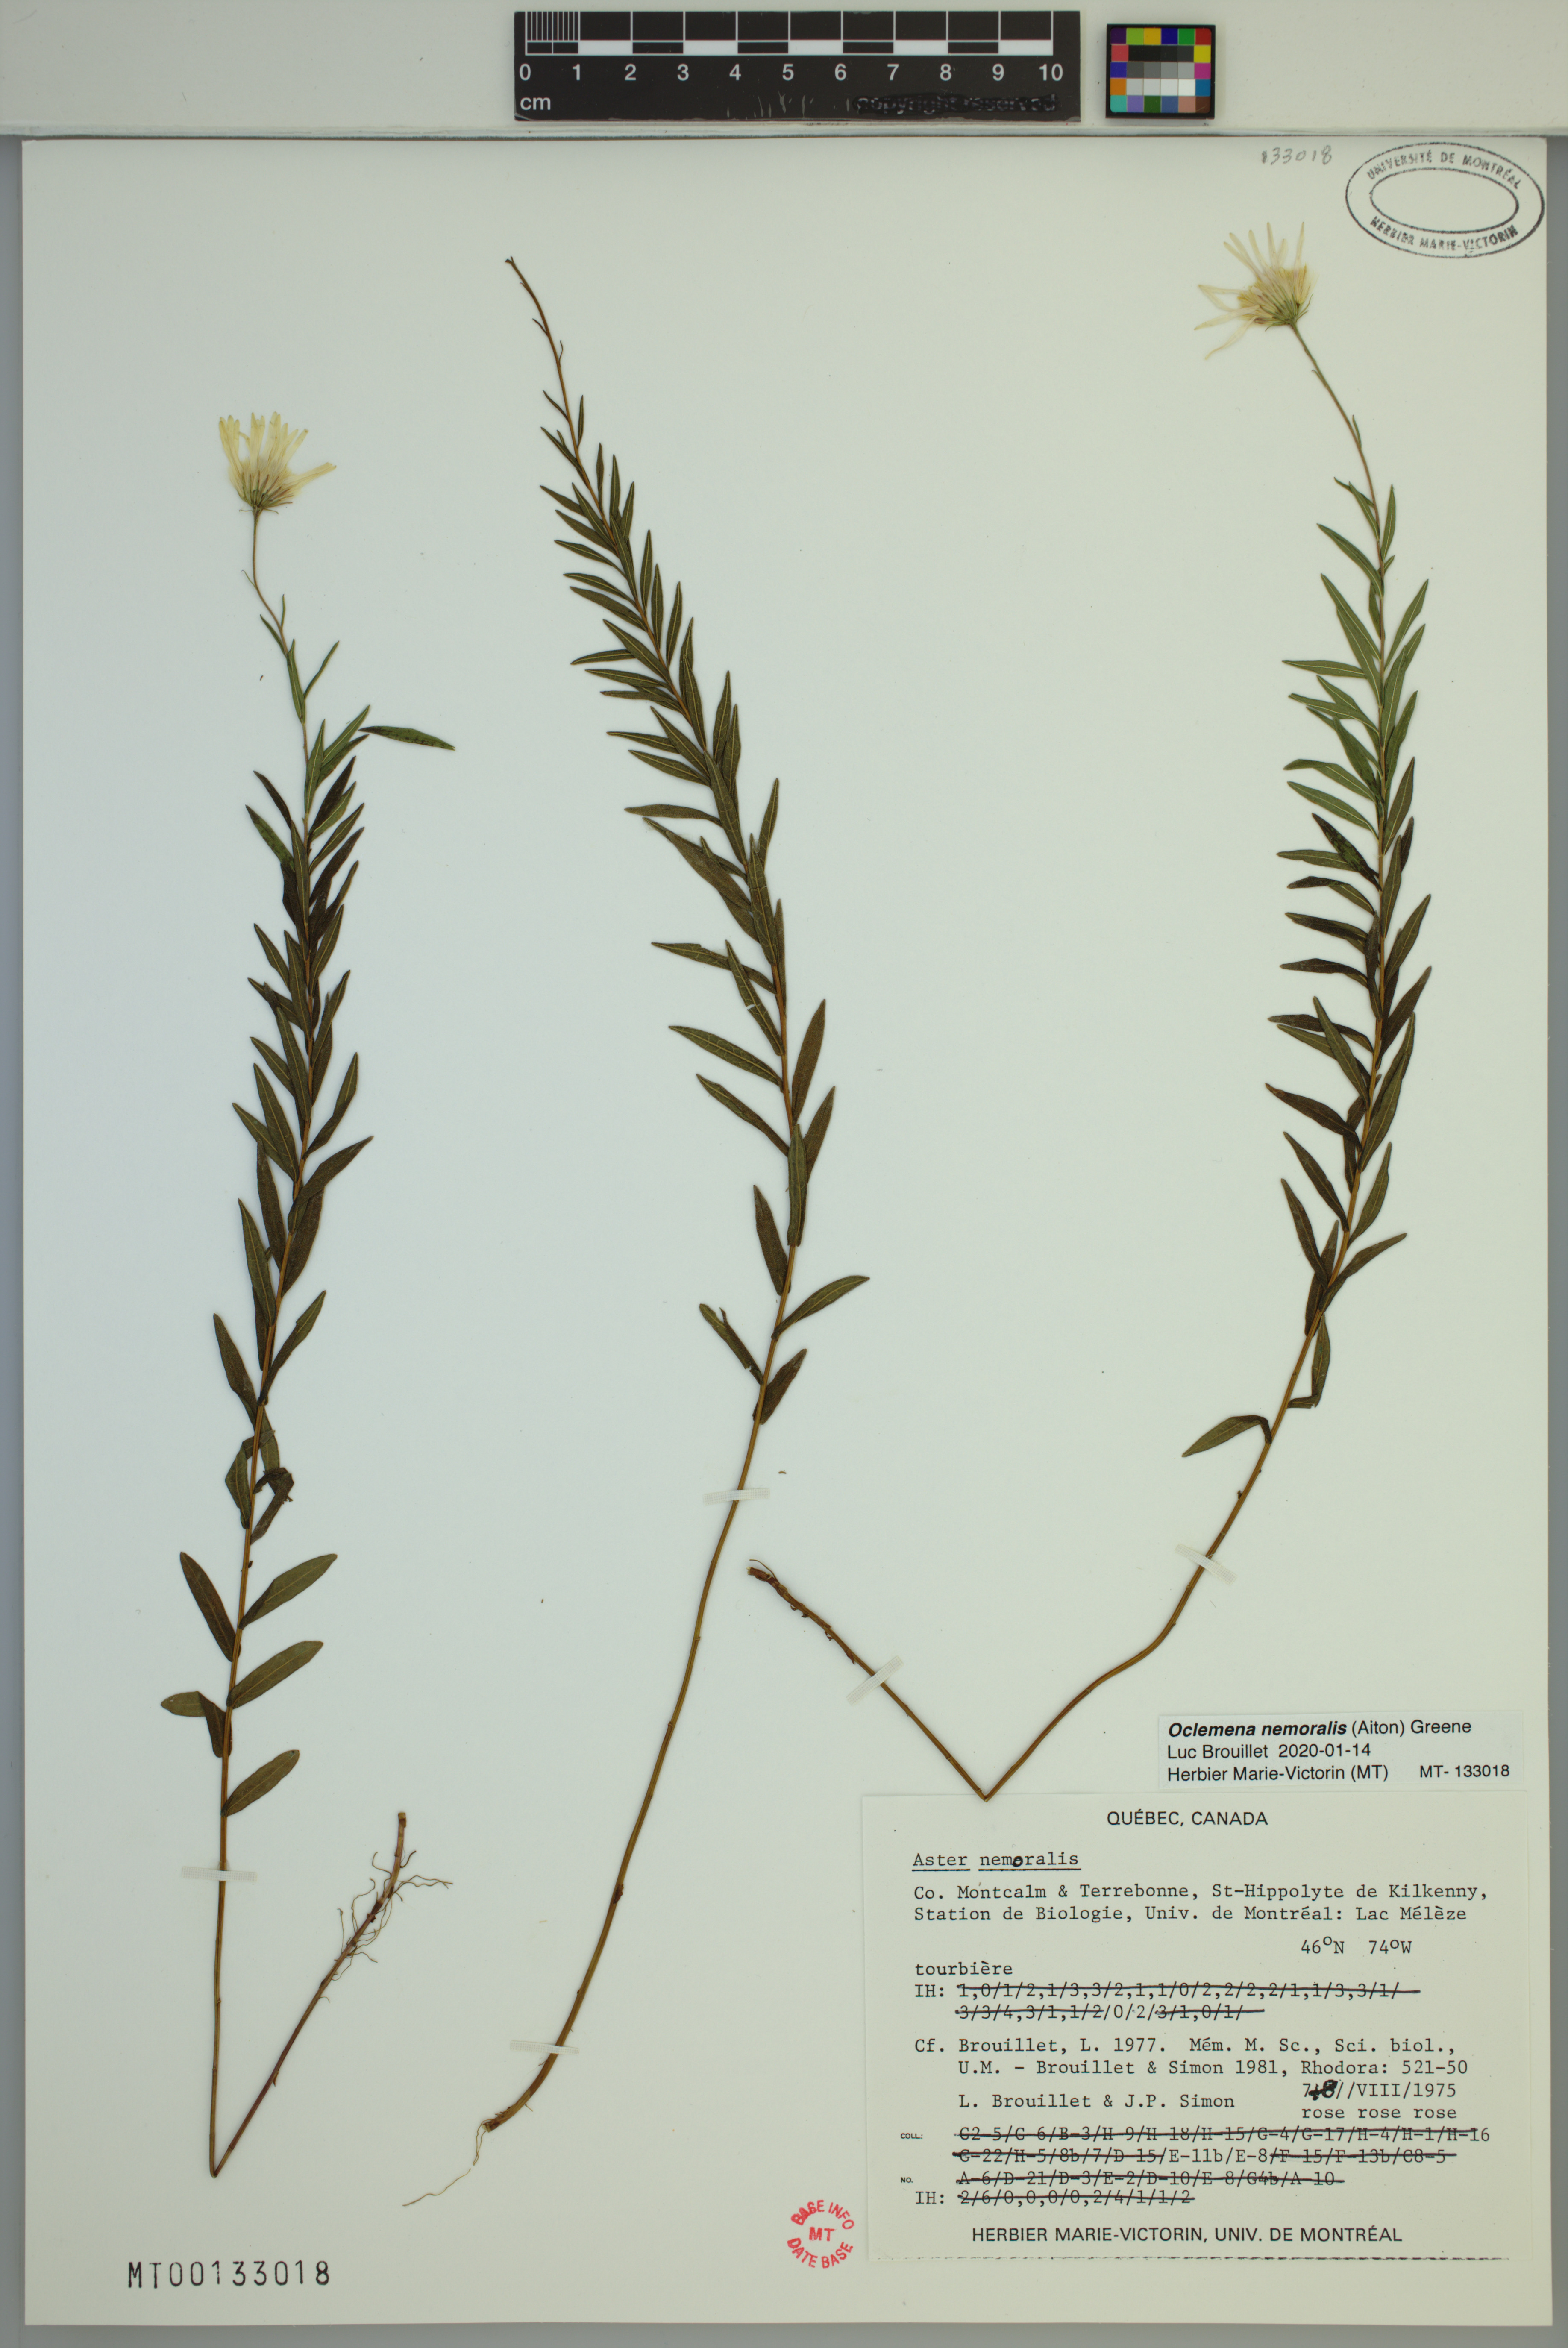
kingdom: Plantae
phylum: Tracheophyta
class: Magnoliopsida
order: Asterales
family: Asteraceae
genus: Oclemena
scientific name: Oclemena nemoralis
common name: Bog aster
